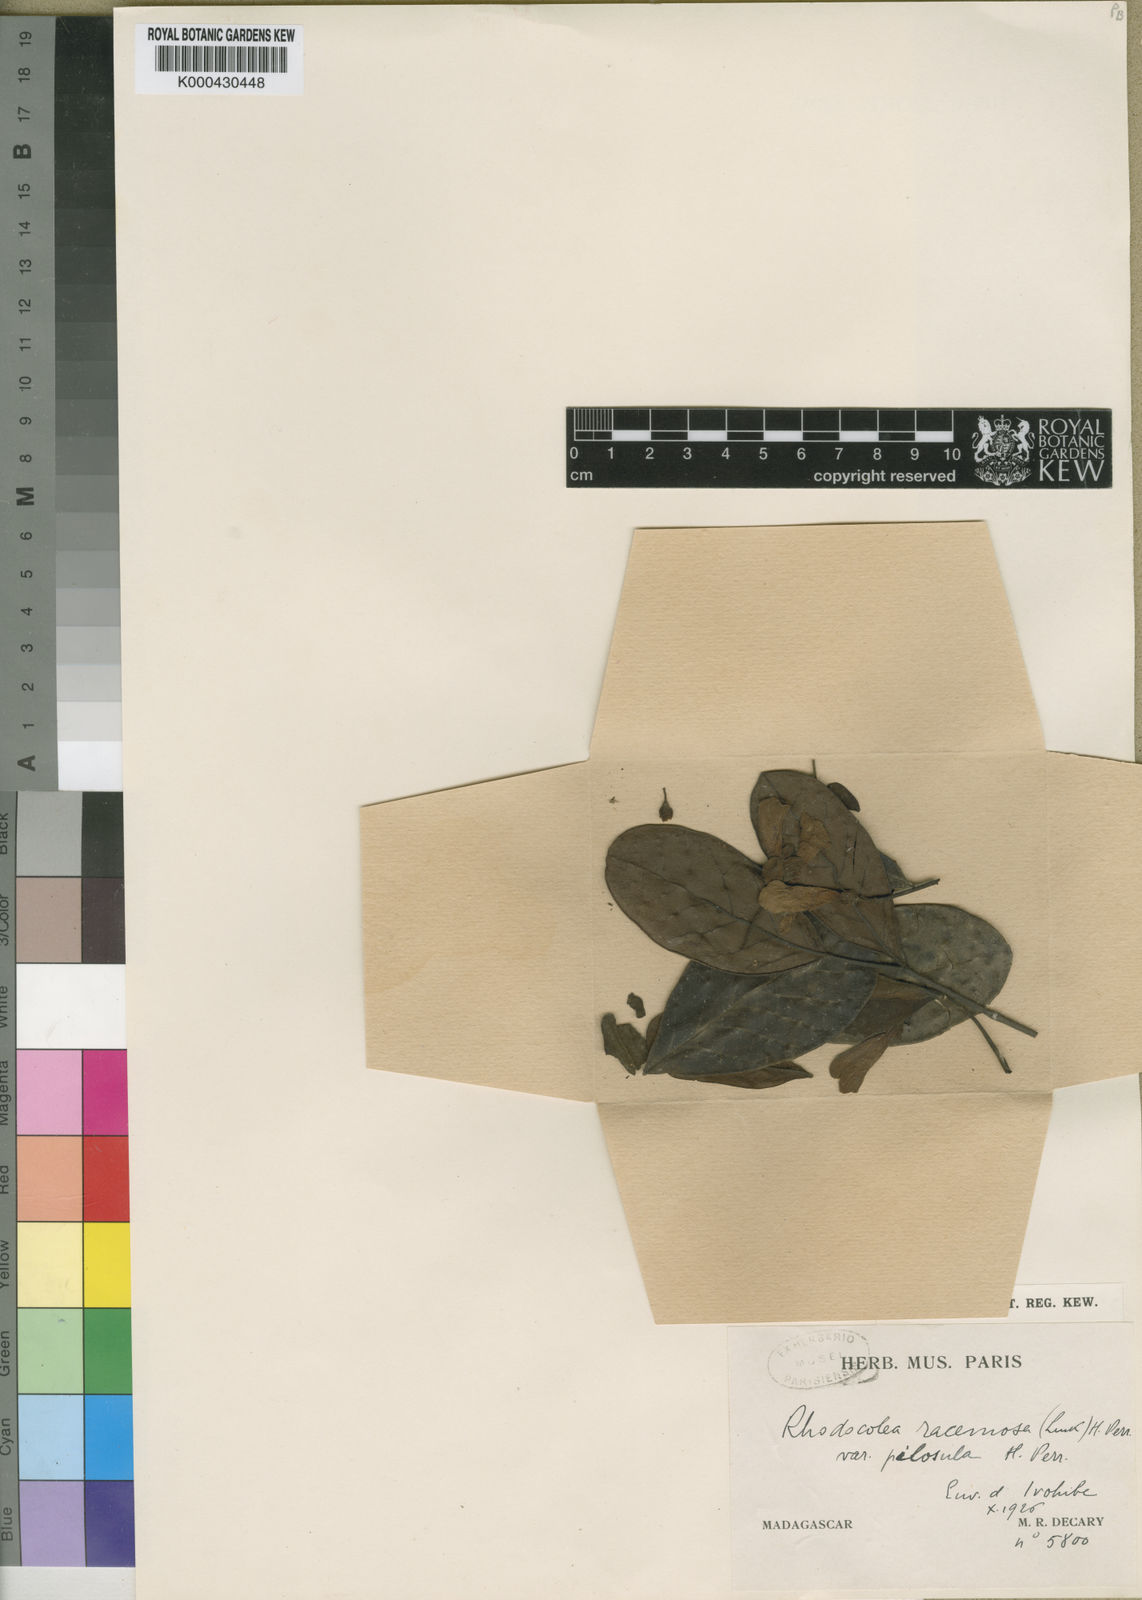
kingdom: Plantae
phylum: Tracheophyta
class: Magnoliopsida
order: Lamiales
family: Bignoniaceae
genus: Rhodocolea
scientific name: Rhodocolea racemosa
